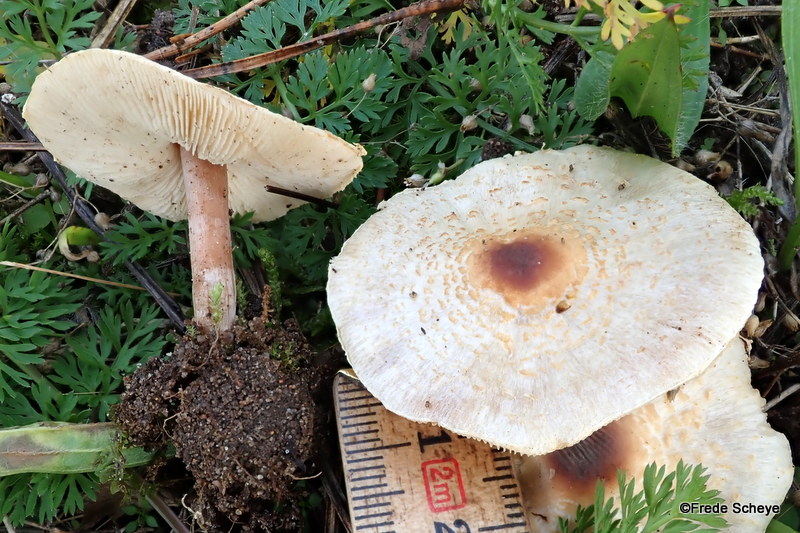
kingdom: Fungi
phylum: Basidiomycota
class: Agaricomycetes
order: Agaricales
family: Agaricaceae
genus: Lepiota
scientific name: Lepiota cristata
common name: stinkende parasolhat
